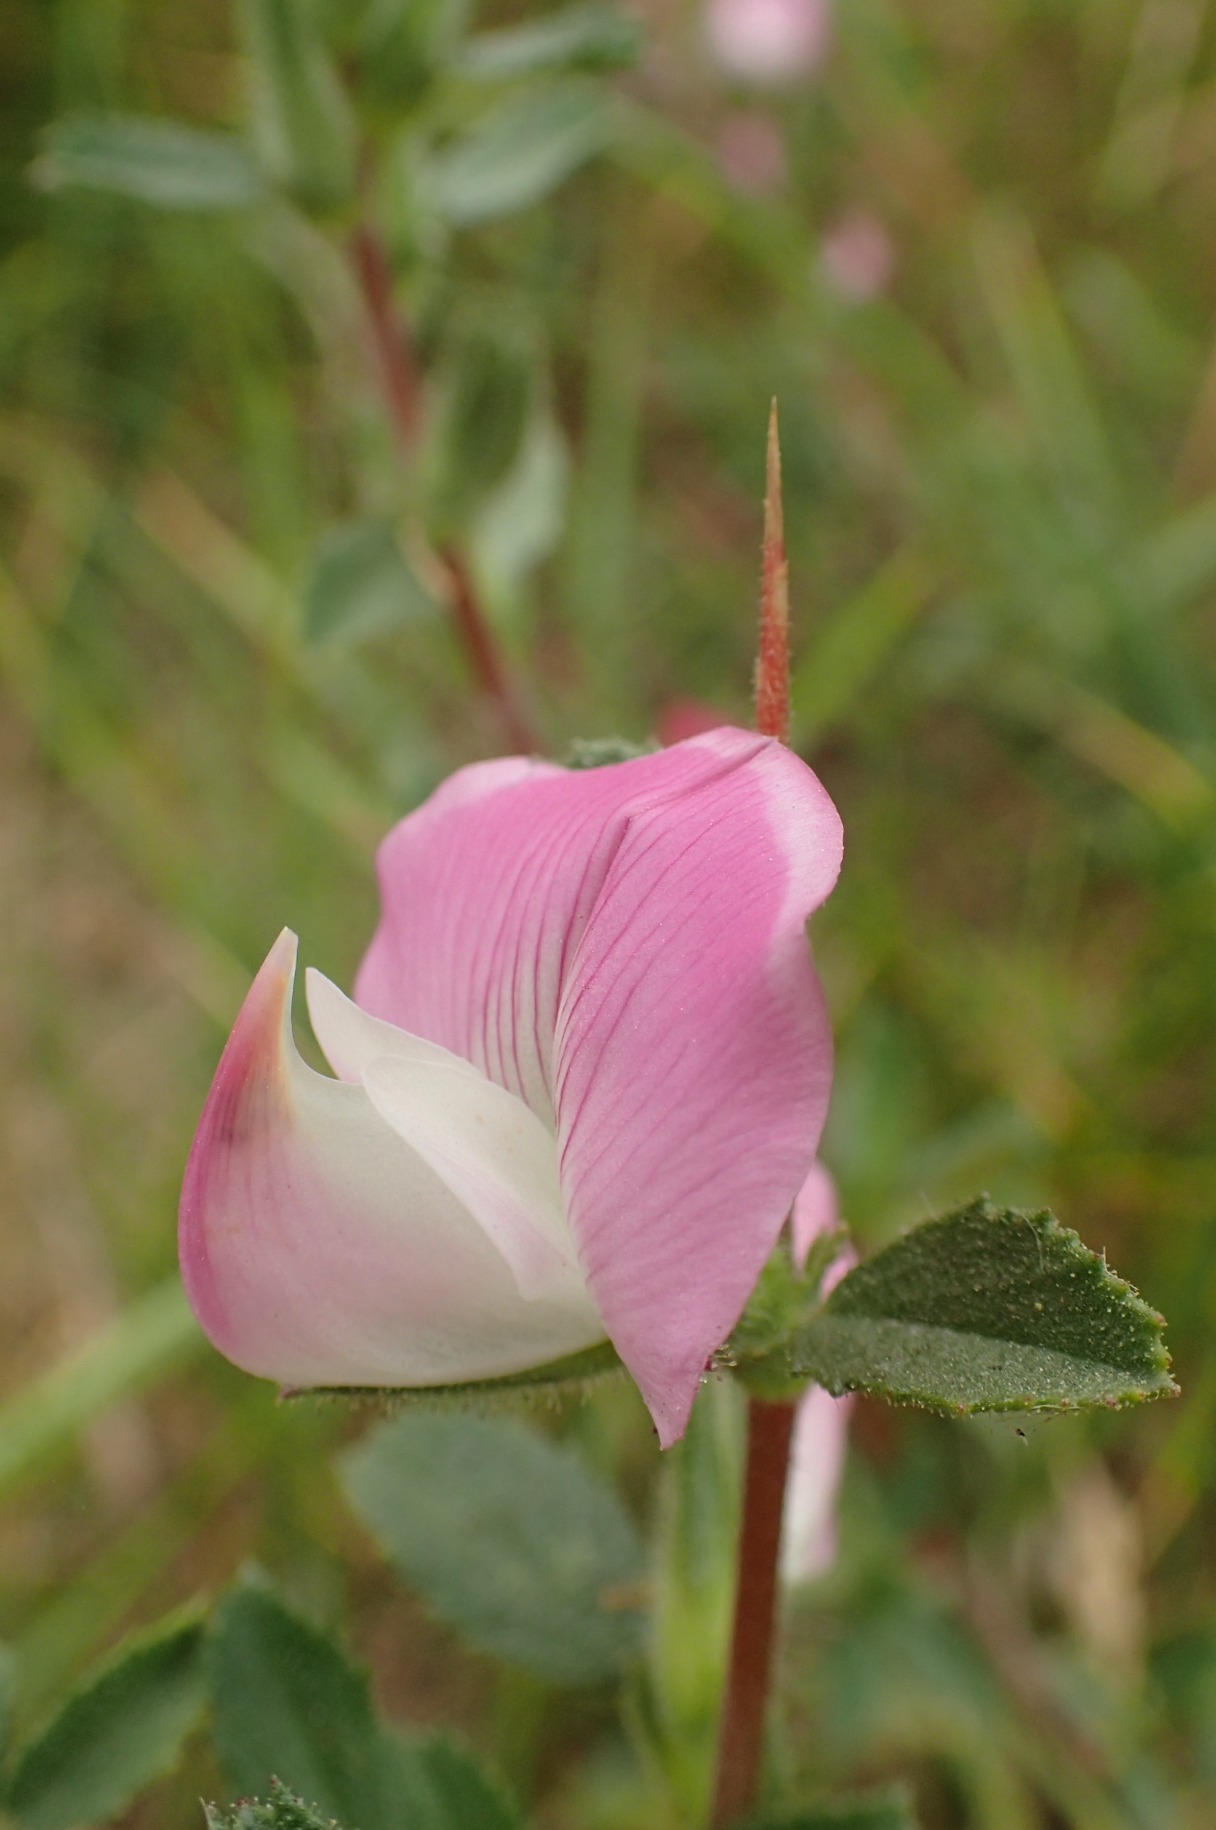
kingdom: Plantae
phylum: Tracheophyta
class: Magnoliopsida
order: Fabales
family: Fabaceae
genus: Ononis
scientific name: Ononis spinosa
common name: Mark-krageklo
